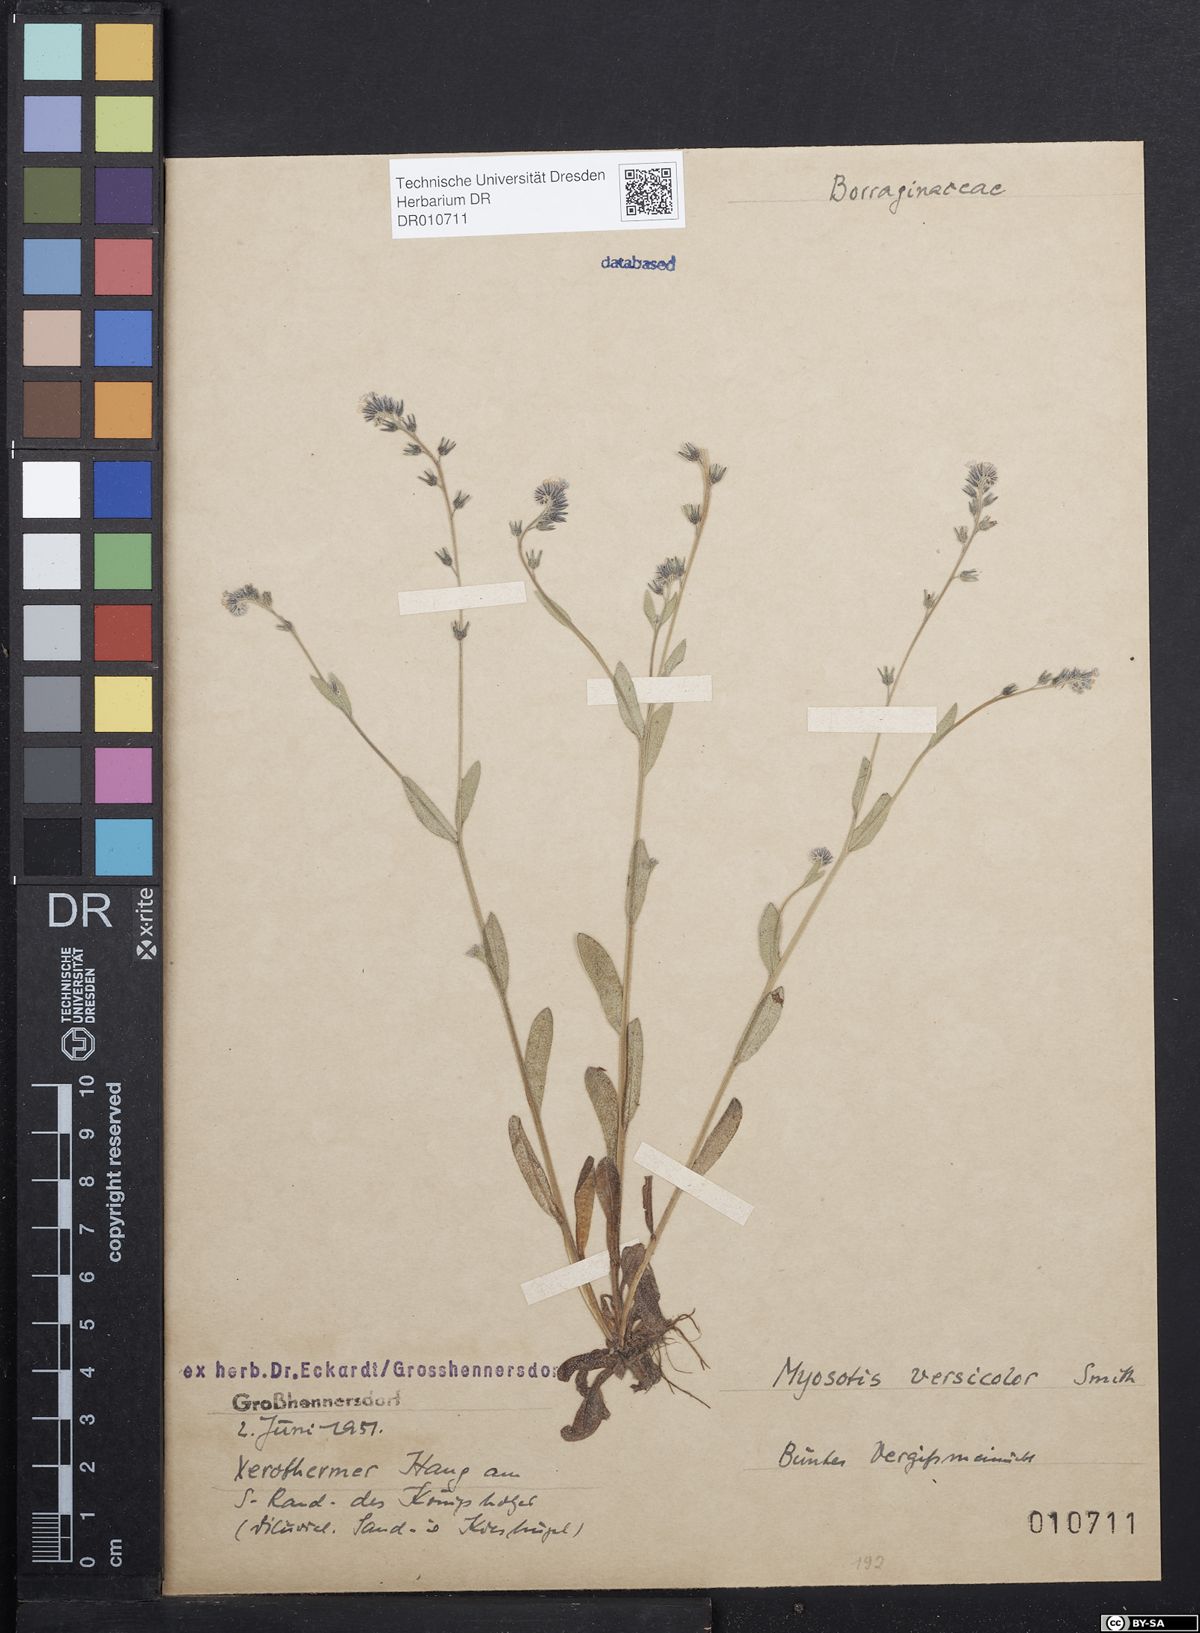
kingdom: Plantae
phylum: Tracheophyta
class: Magnoliopsida
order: Boraginales
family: Boraginaceae
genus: Myosotis
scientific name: Myosotis discolor
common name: Changing forget-me-not
